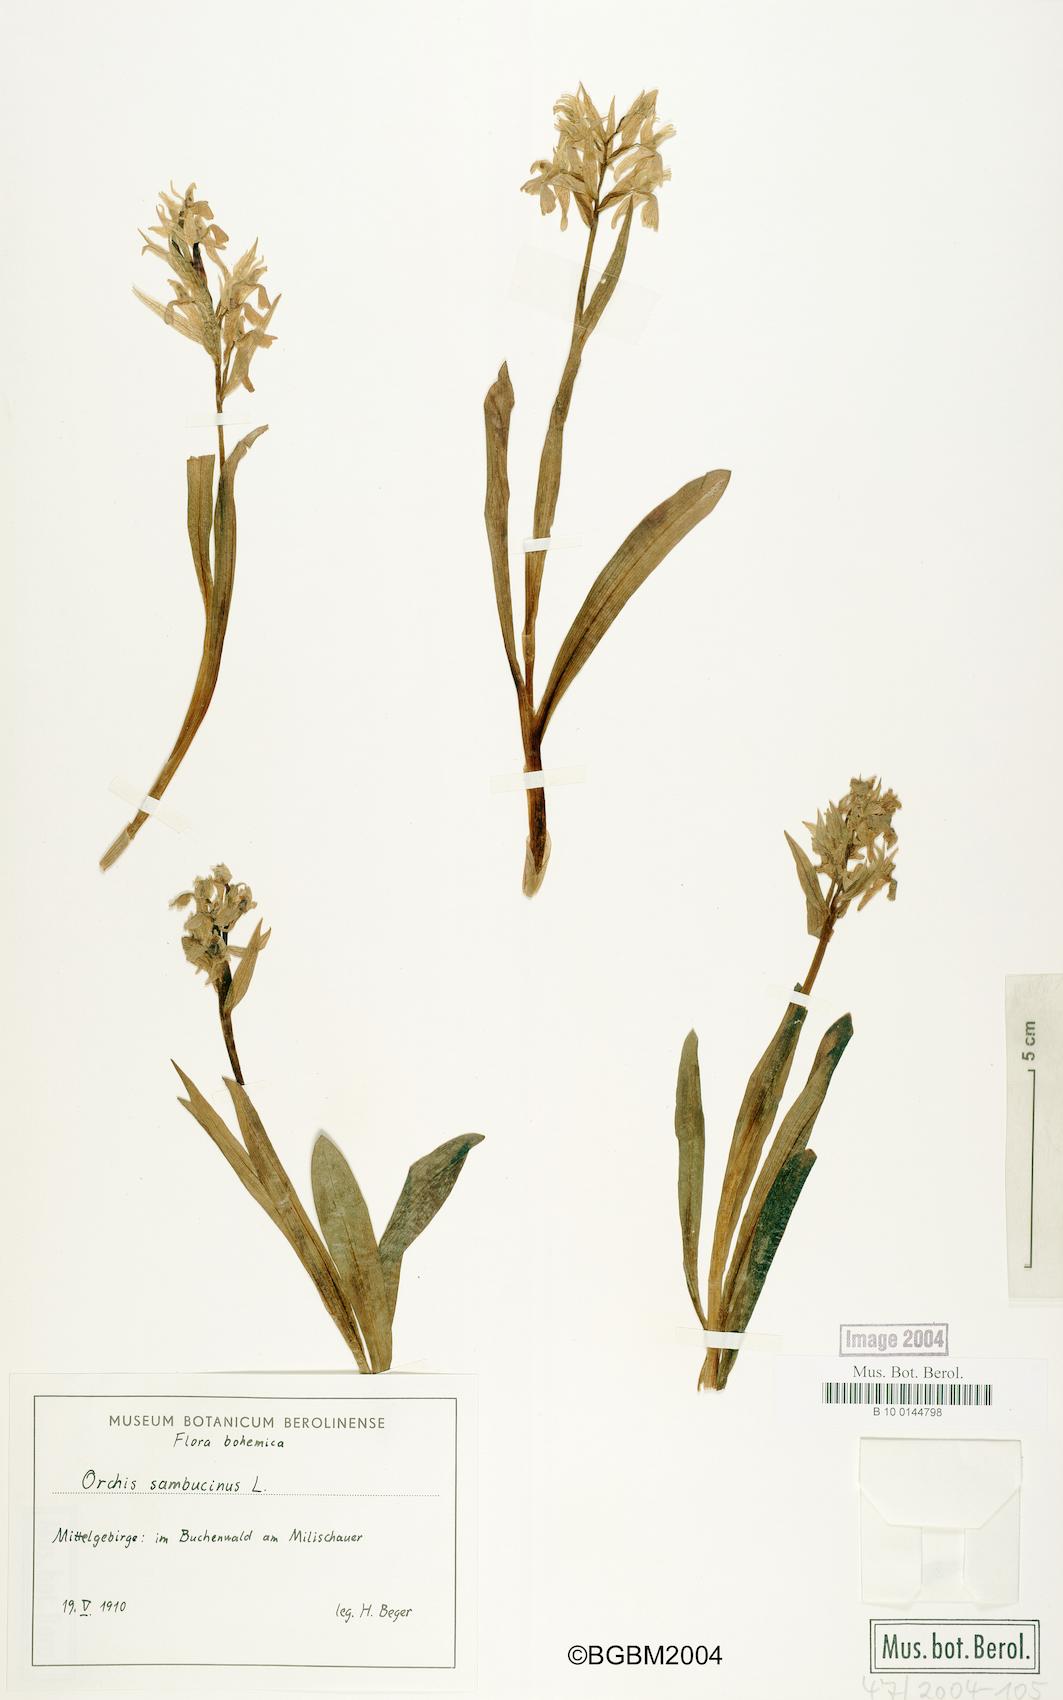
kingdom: Plantae
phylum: Tracheophyta
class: Liliopsida
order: Asparagales
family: Orchidaceae
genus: Dactylorhiza
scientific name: Dactylorhiza sambucina
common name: Elder-flowered orchid
